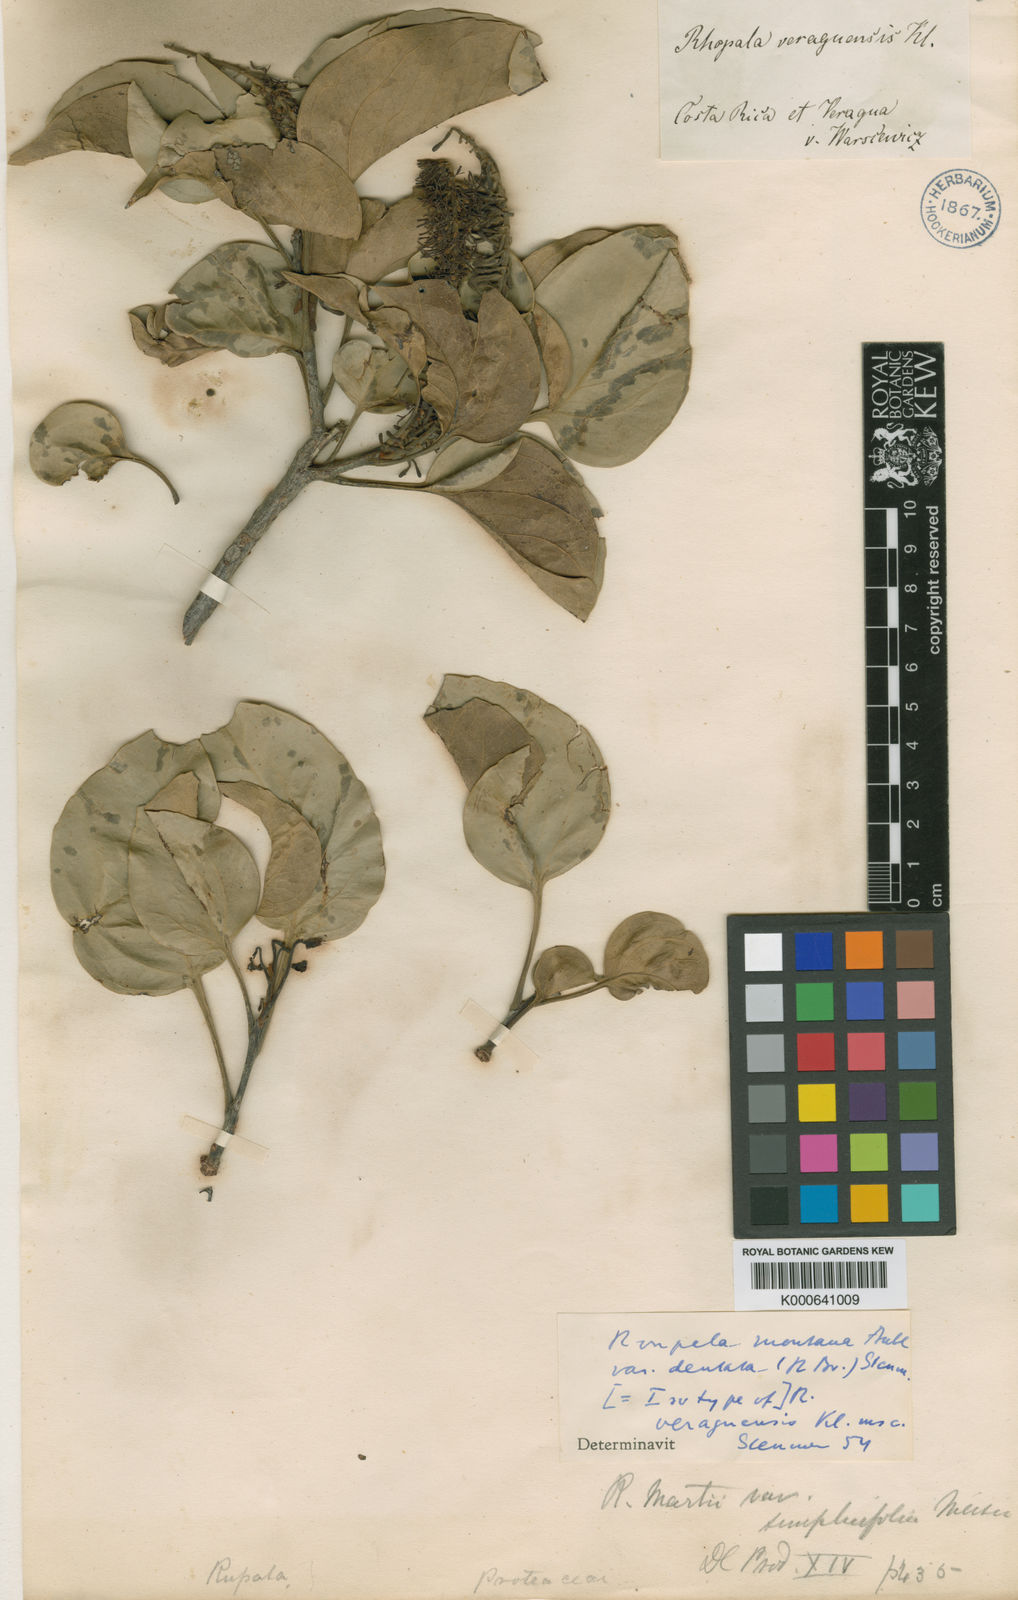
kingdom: Plantae
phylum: Tracheophyta
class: Magnoliopsida
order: Proteales
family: Proteaceae
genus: Roupala
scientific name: Roupala montana
